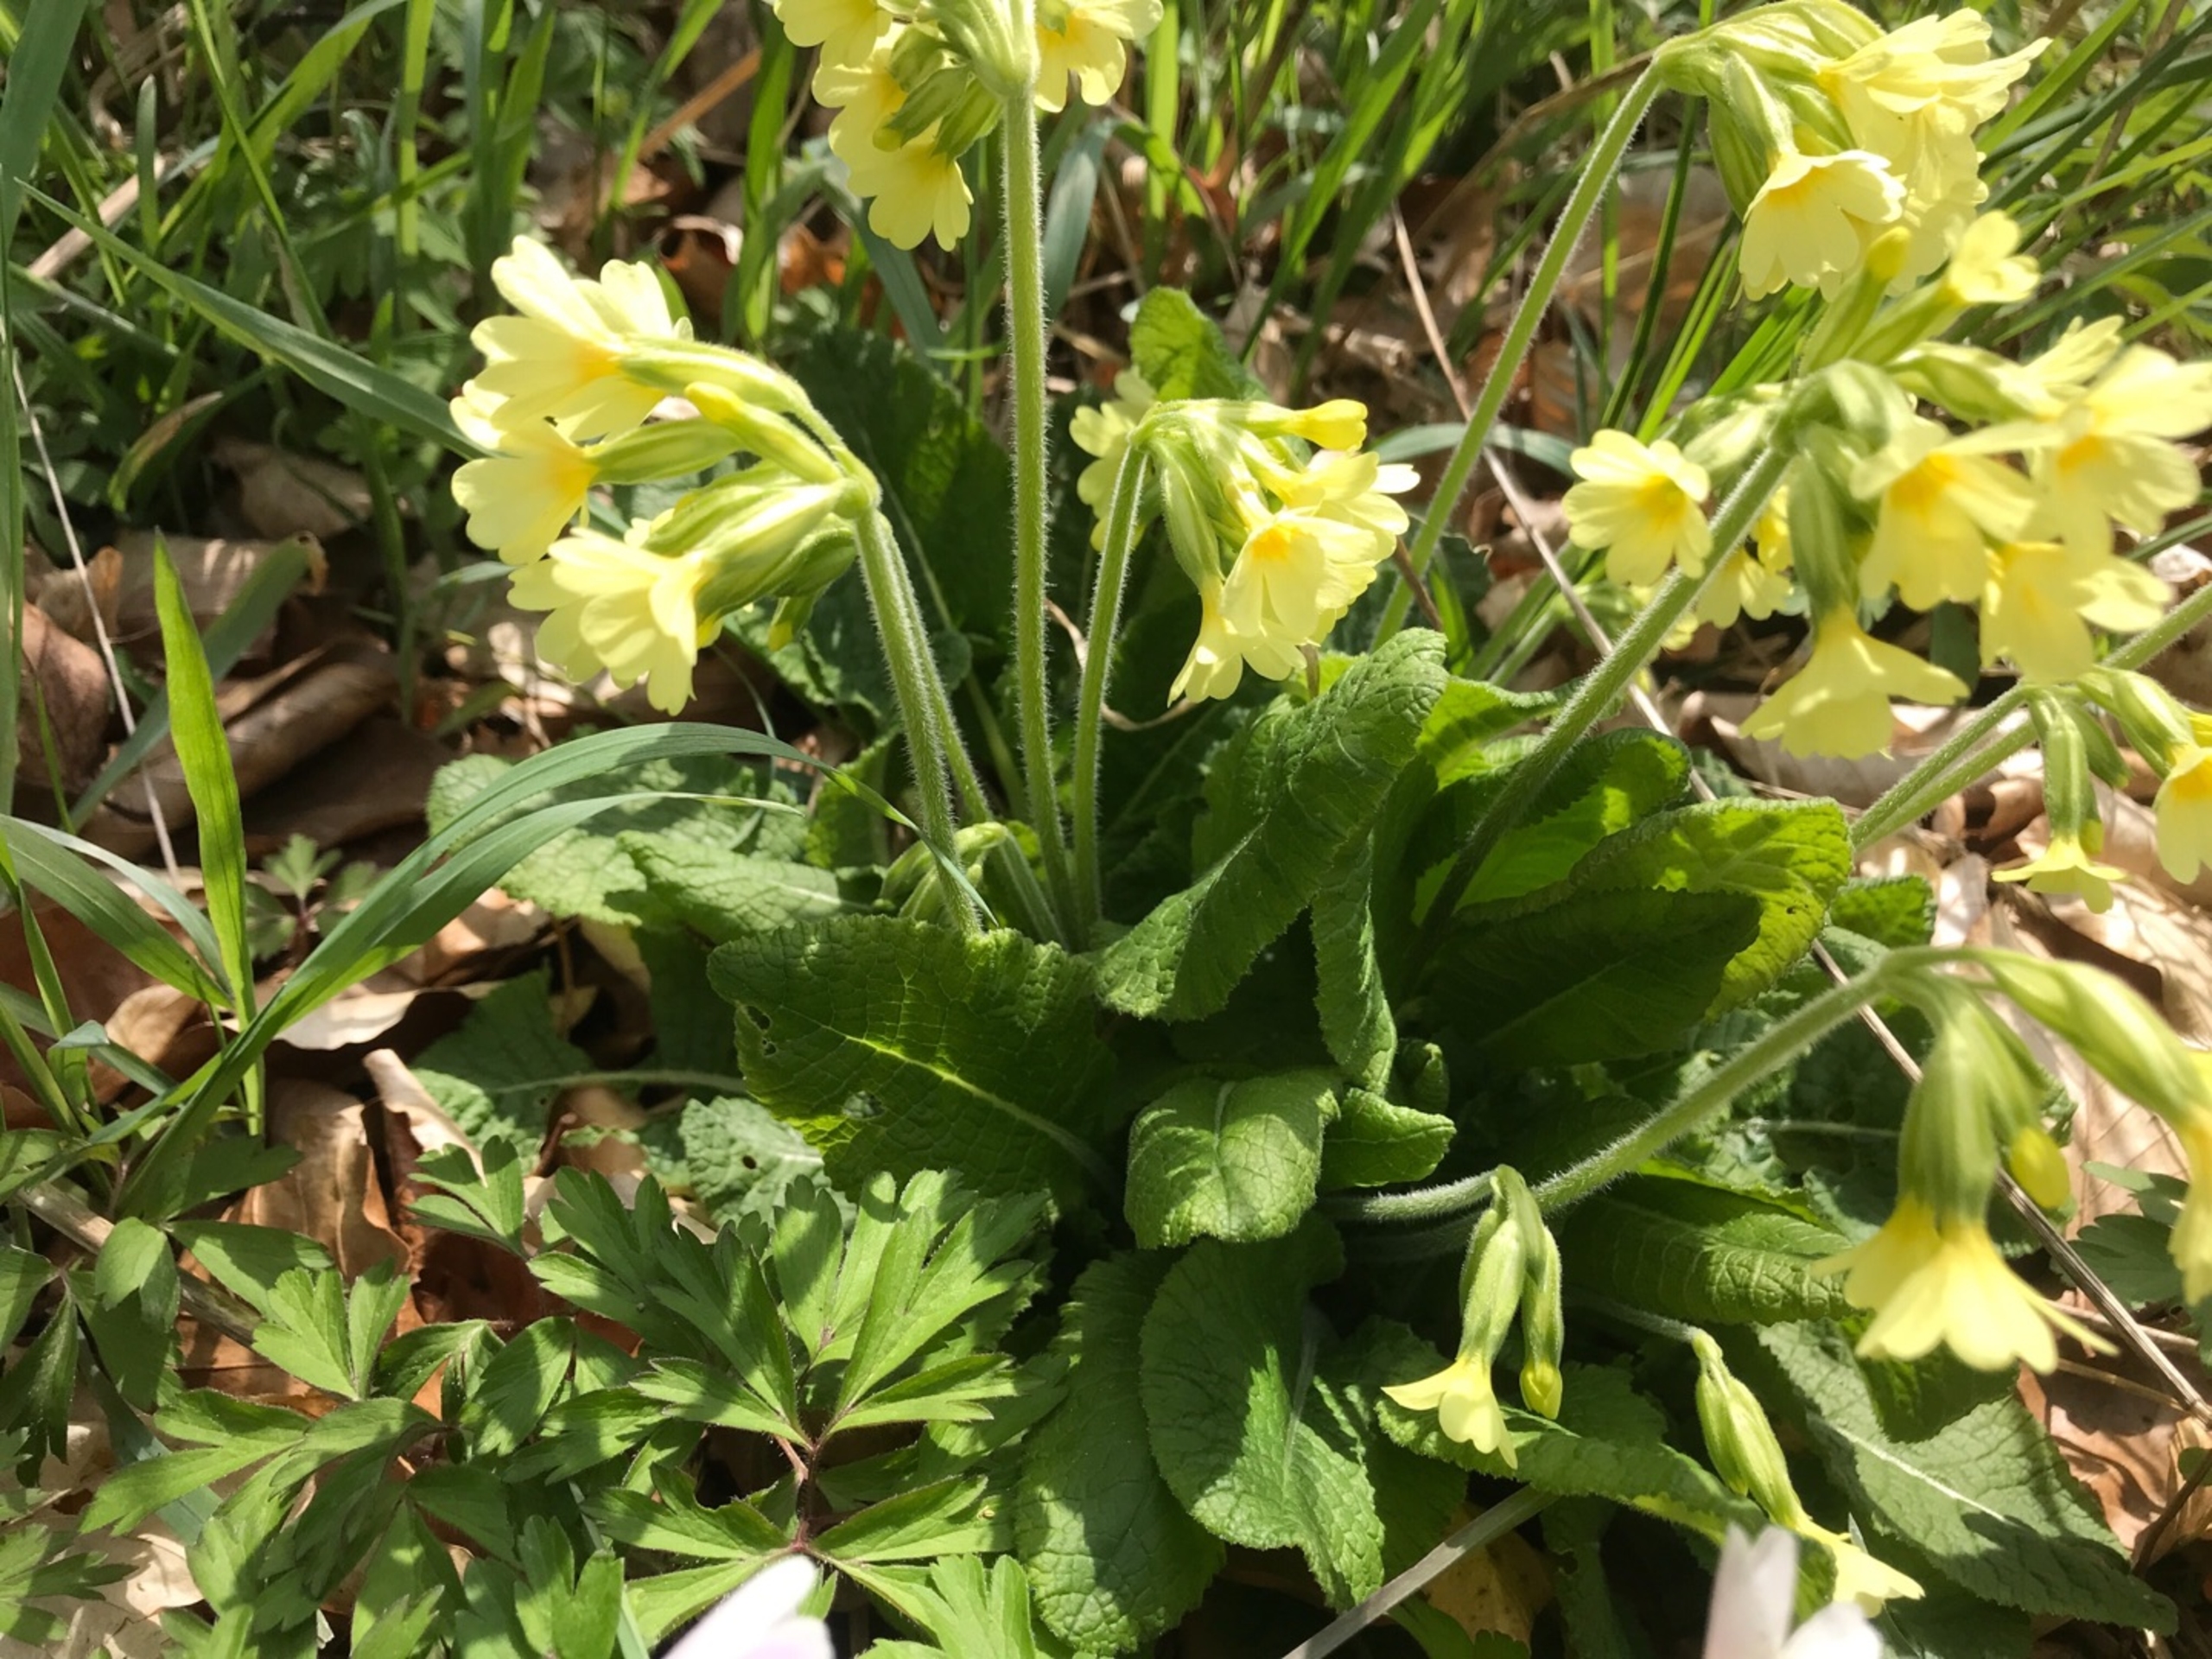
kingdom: Plantae
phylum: Tracheophyta
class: Magnoliopsida
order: Ericales
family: Primulaceae
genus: Primula
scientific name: Primula elatior
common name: Fladkravet kodriver
